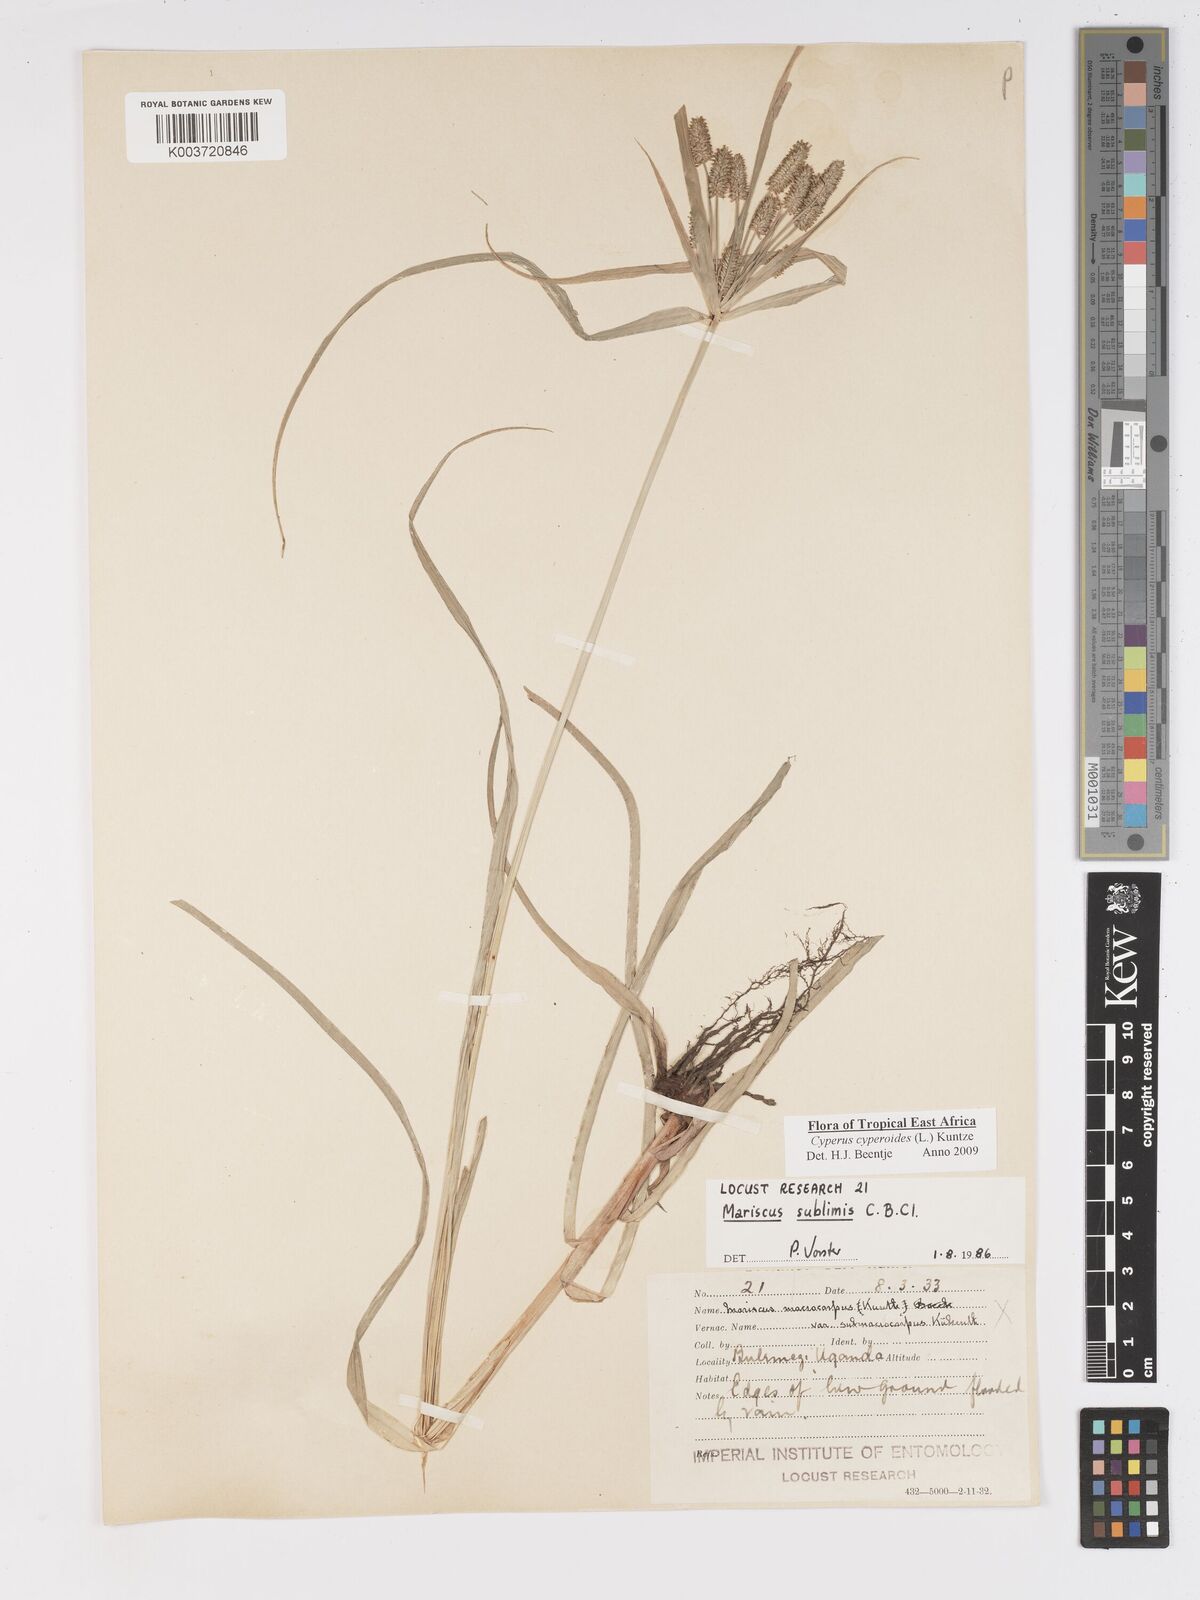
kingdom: Plantae
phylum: Tracheophyta
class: Liliopsida
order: Poales
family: Cyperaceae
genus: Cyperus
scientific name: Cyperus cyperoides
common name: Pacific island flat sedge
